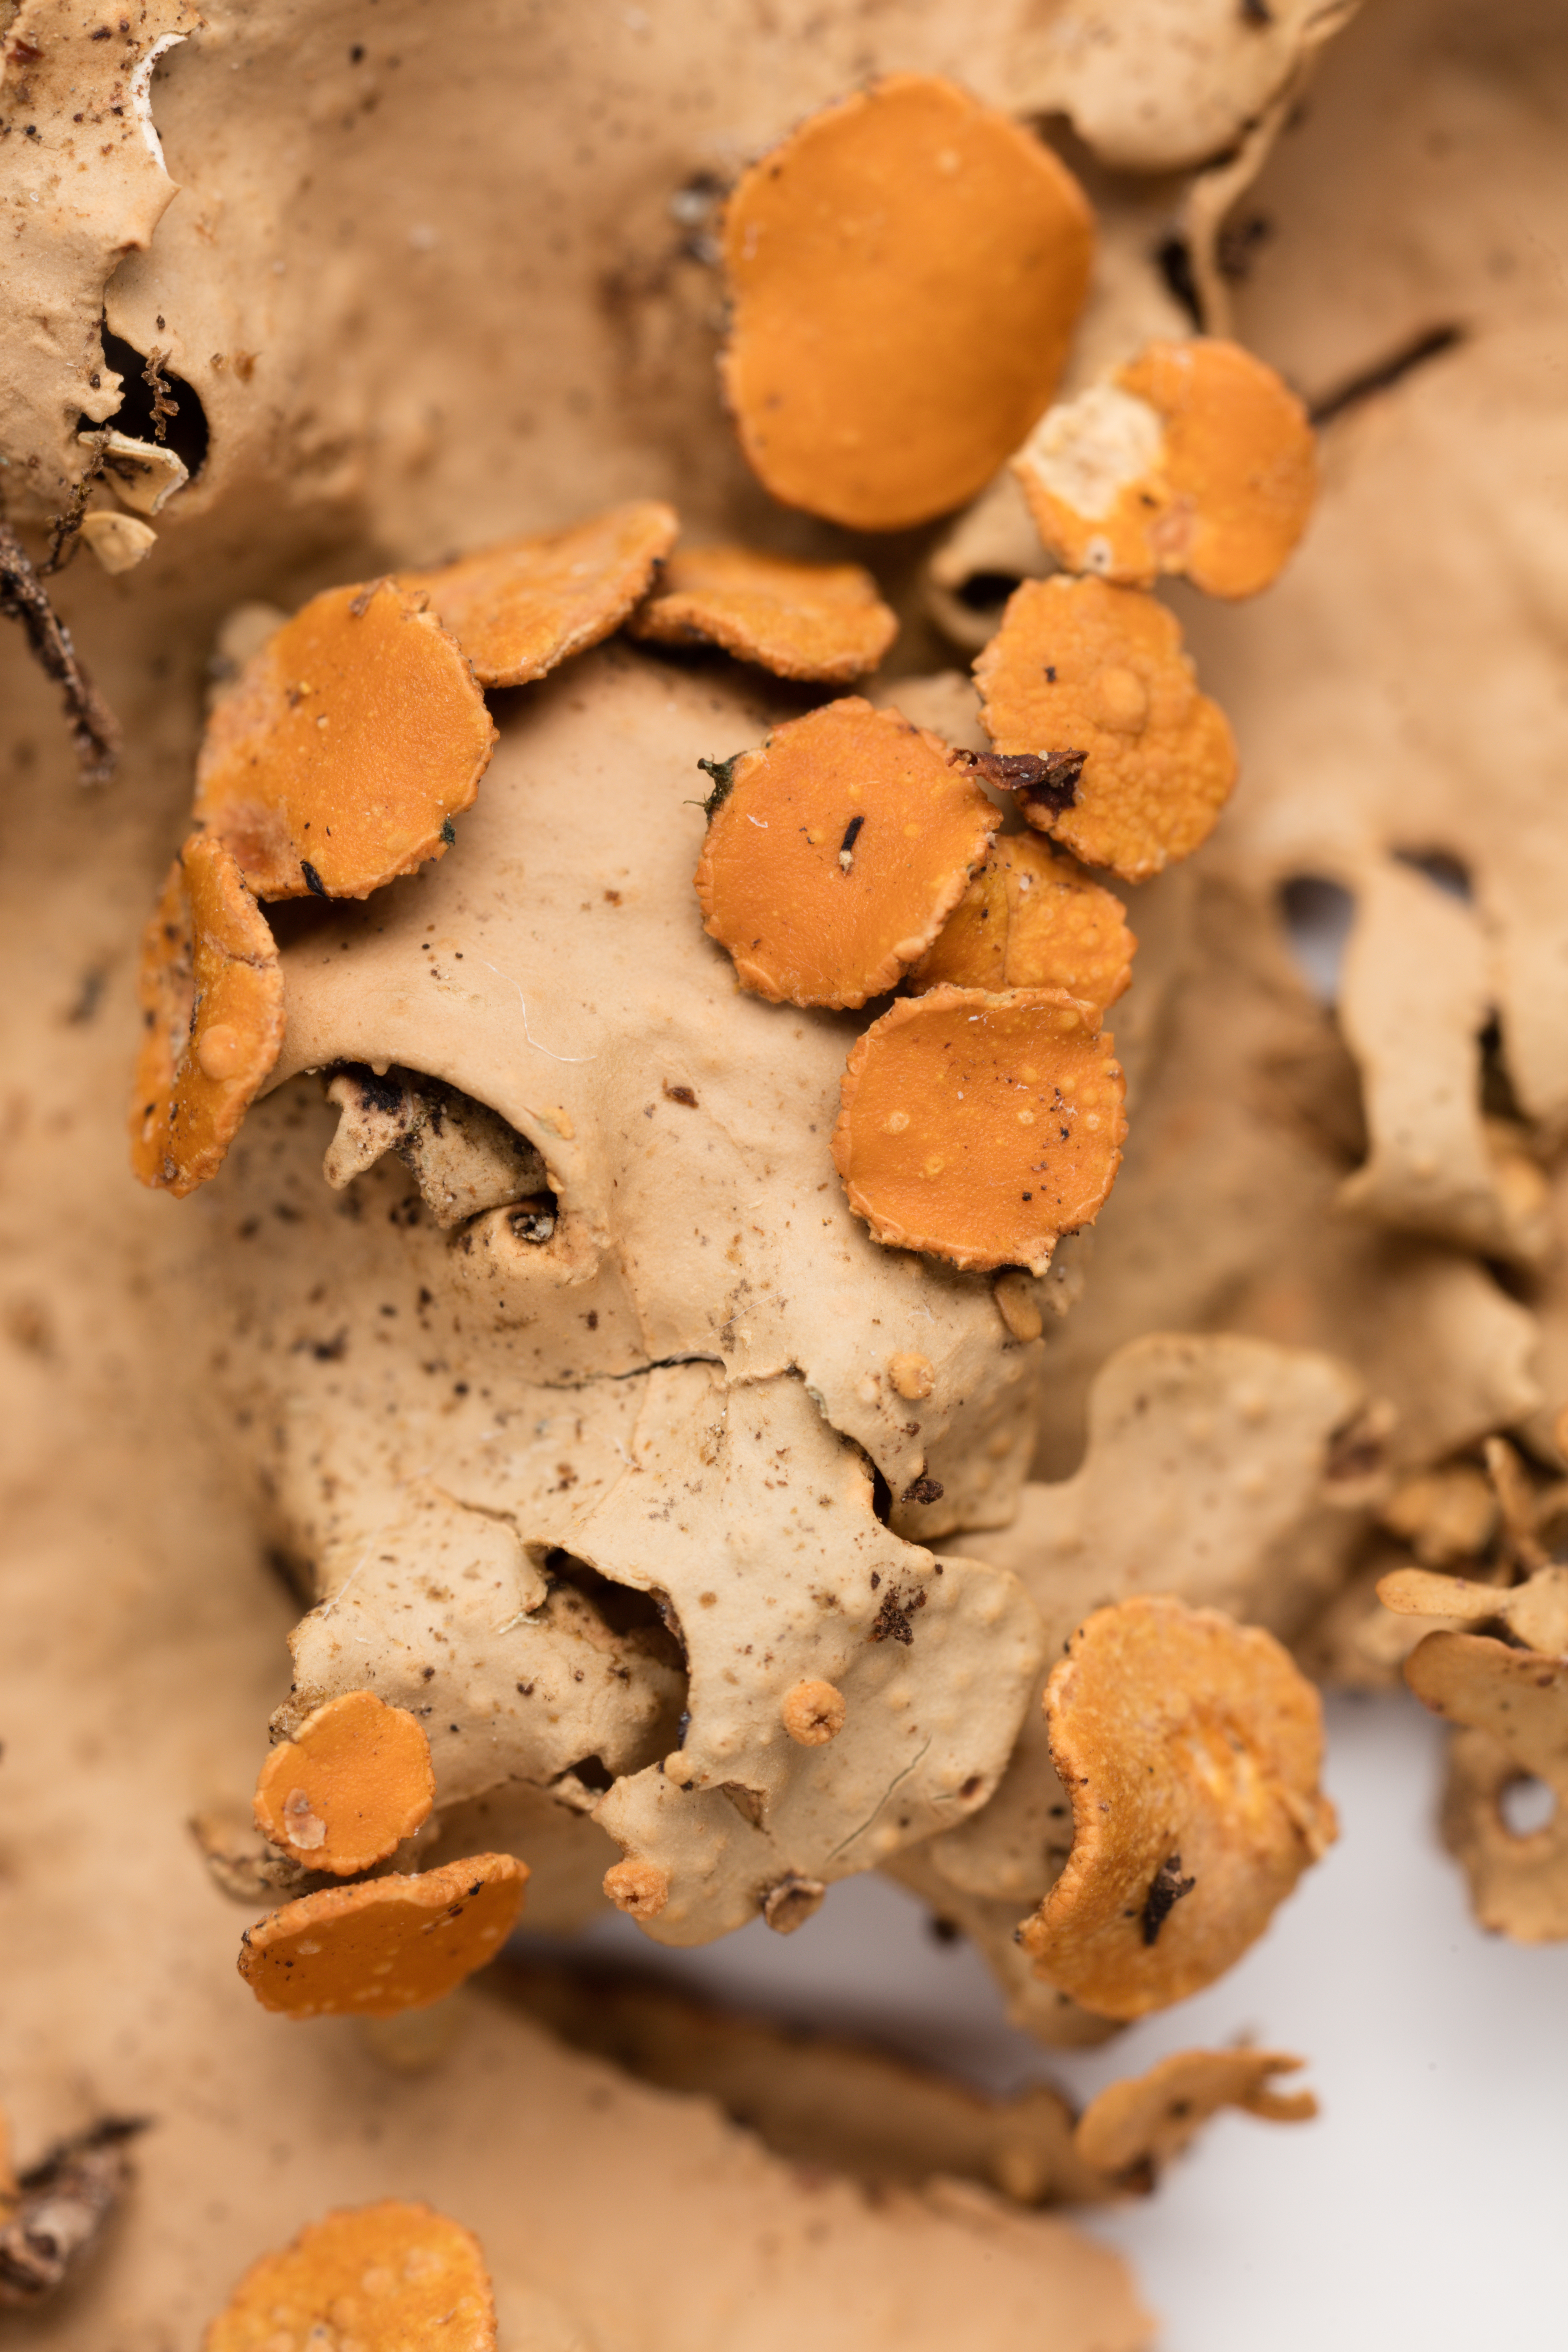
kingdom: Fungi
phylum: Ascomycota
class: Lecanoromycetes
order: Peltigerales
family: Lobariaceae
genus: Sticta
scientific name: Sticta subcaperata
